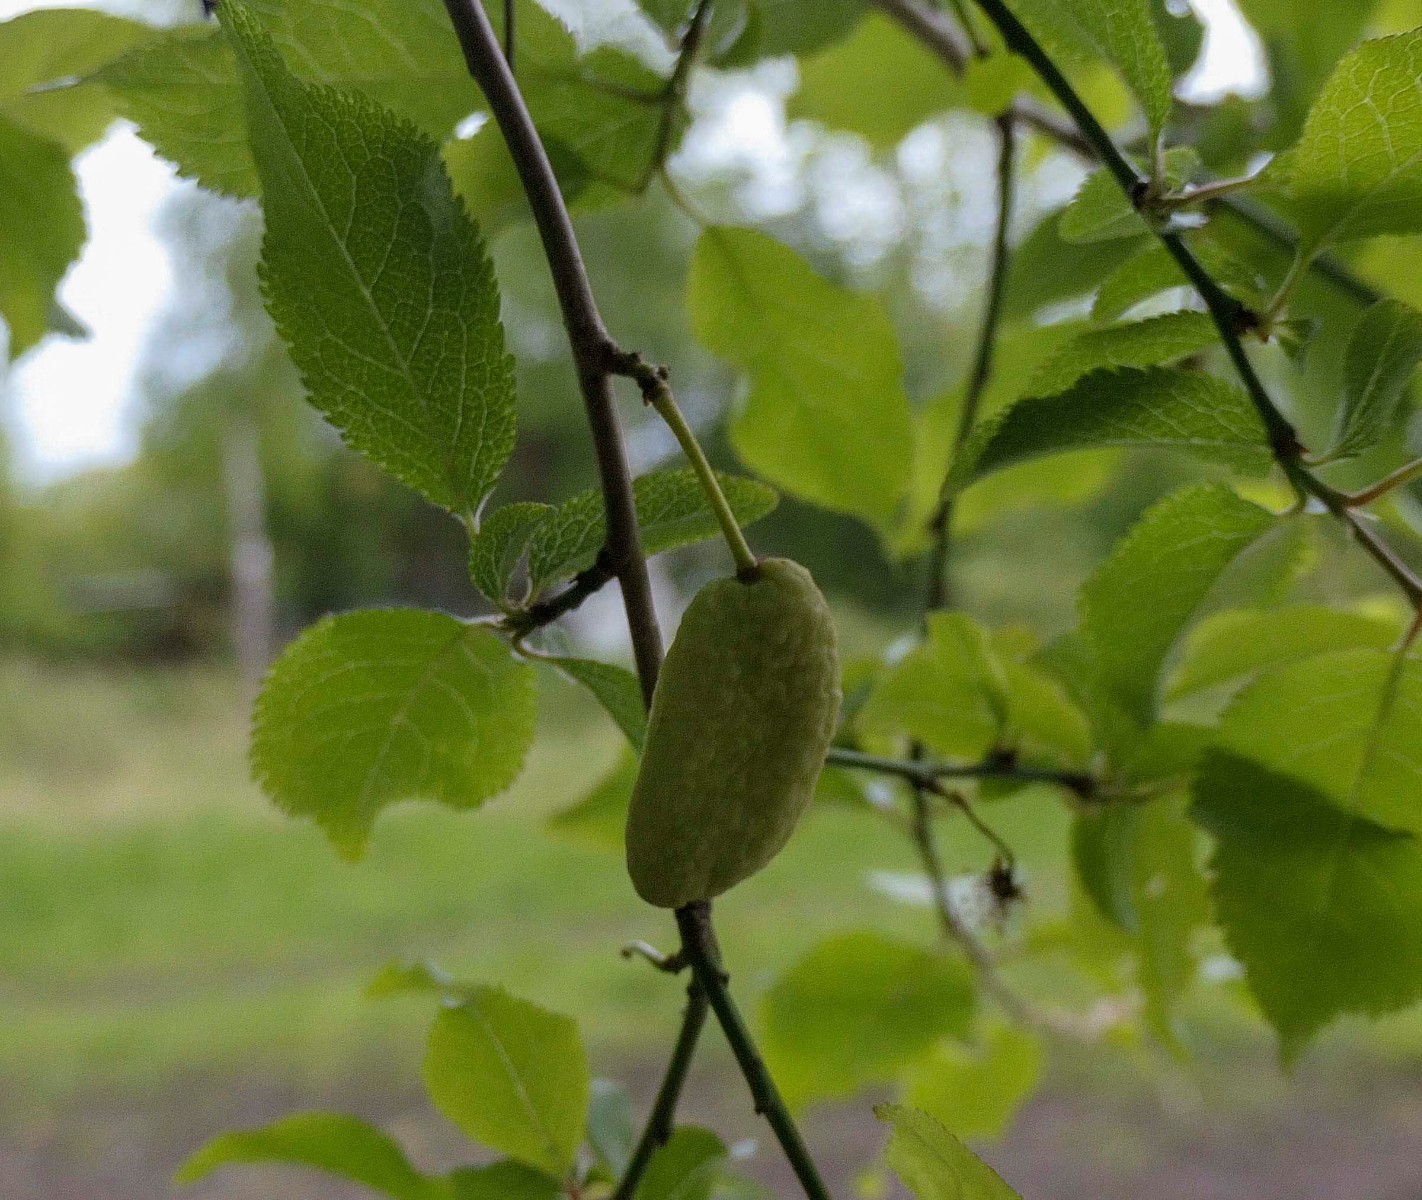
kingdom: Fungi
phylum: Ascomycota
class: Taphrinomycetes
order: Taphrinales
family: Taphrinaceae
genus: Taphrina
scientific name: Taphrina pruni
